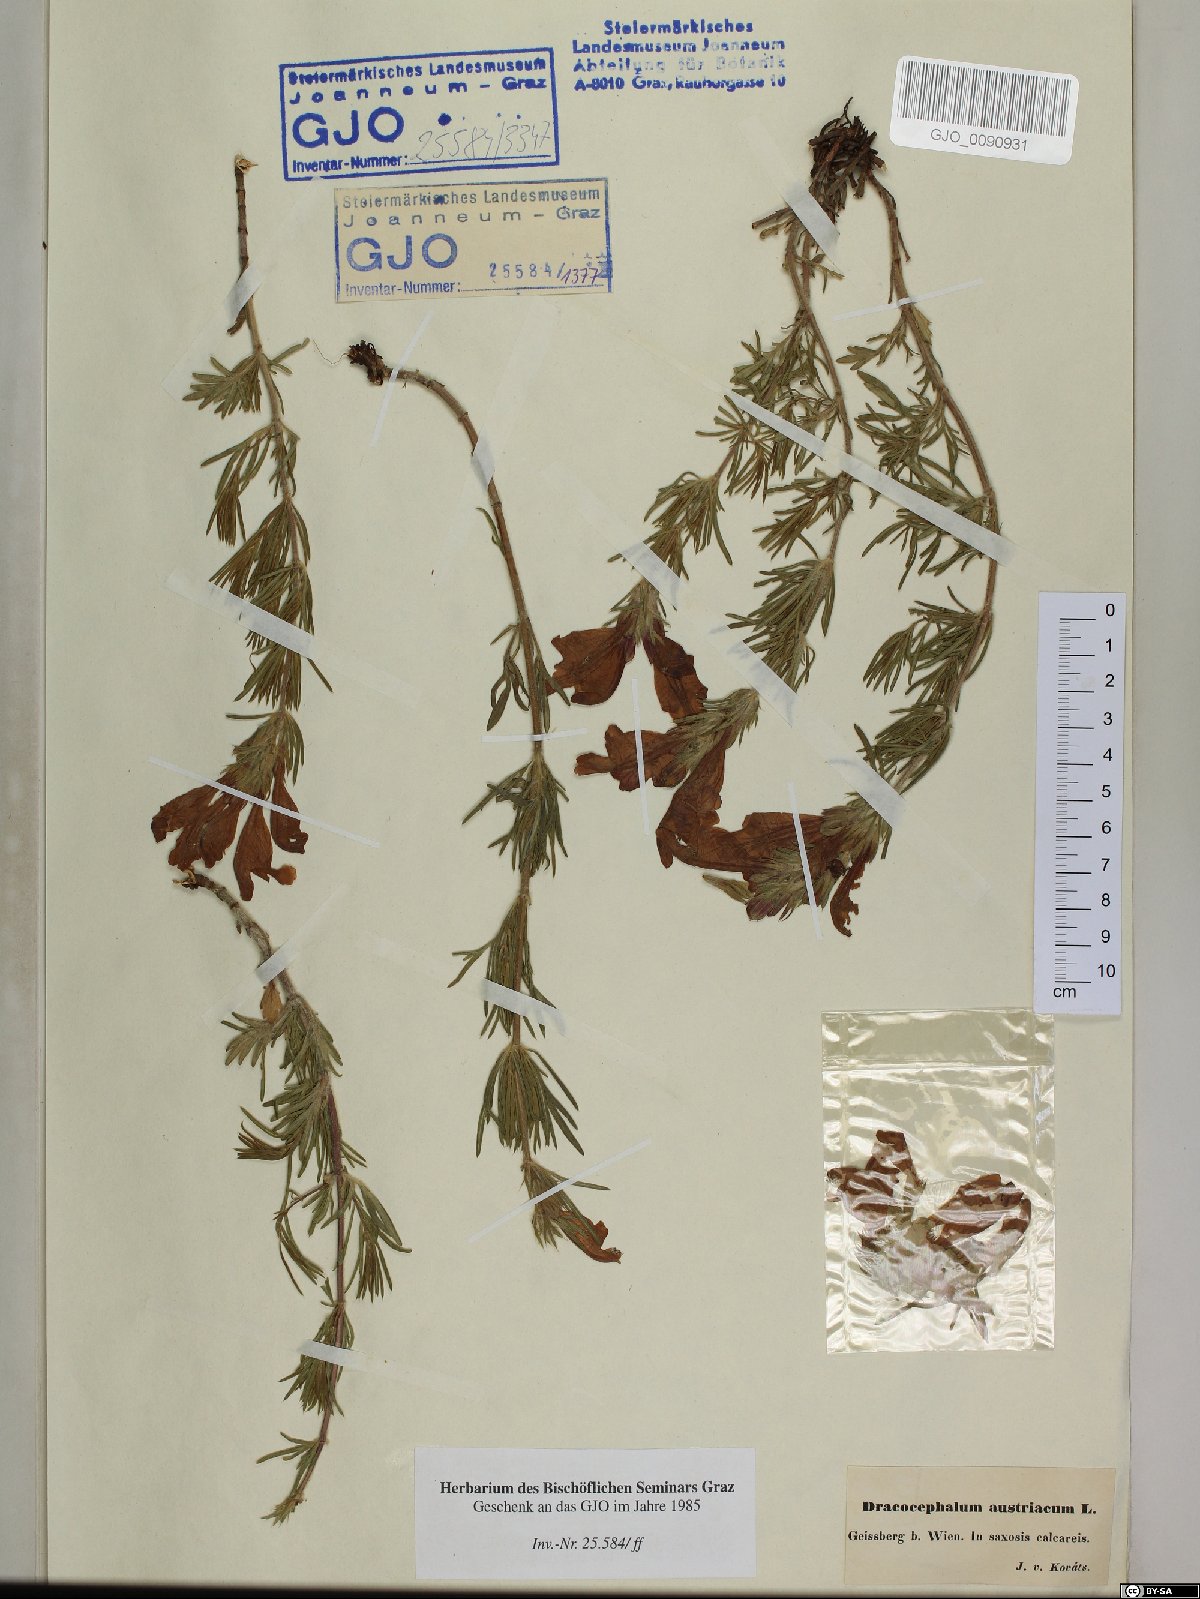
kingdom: Plantae
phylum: Tracheophyta
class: Magnoliopsida
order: Lamiales
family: Lamiaceae
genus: Dracocephalum
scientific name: Dracocephalum austriacum
